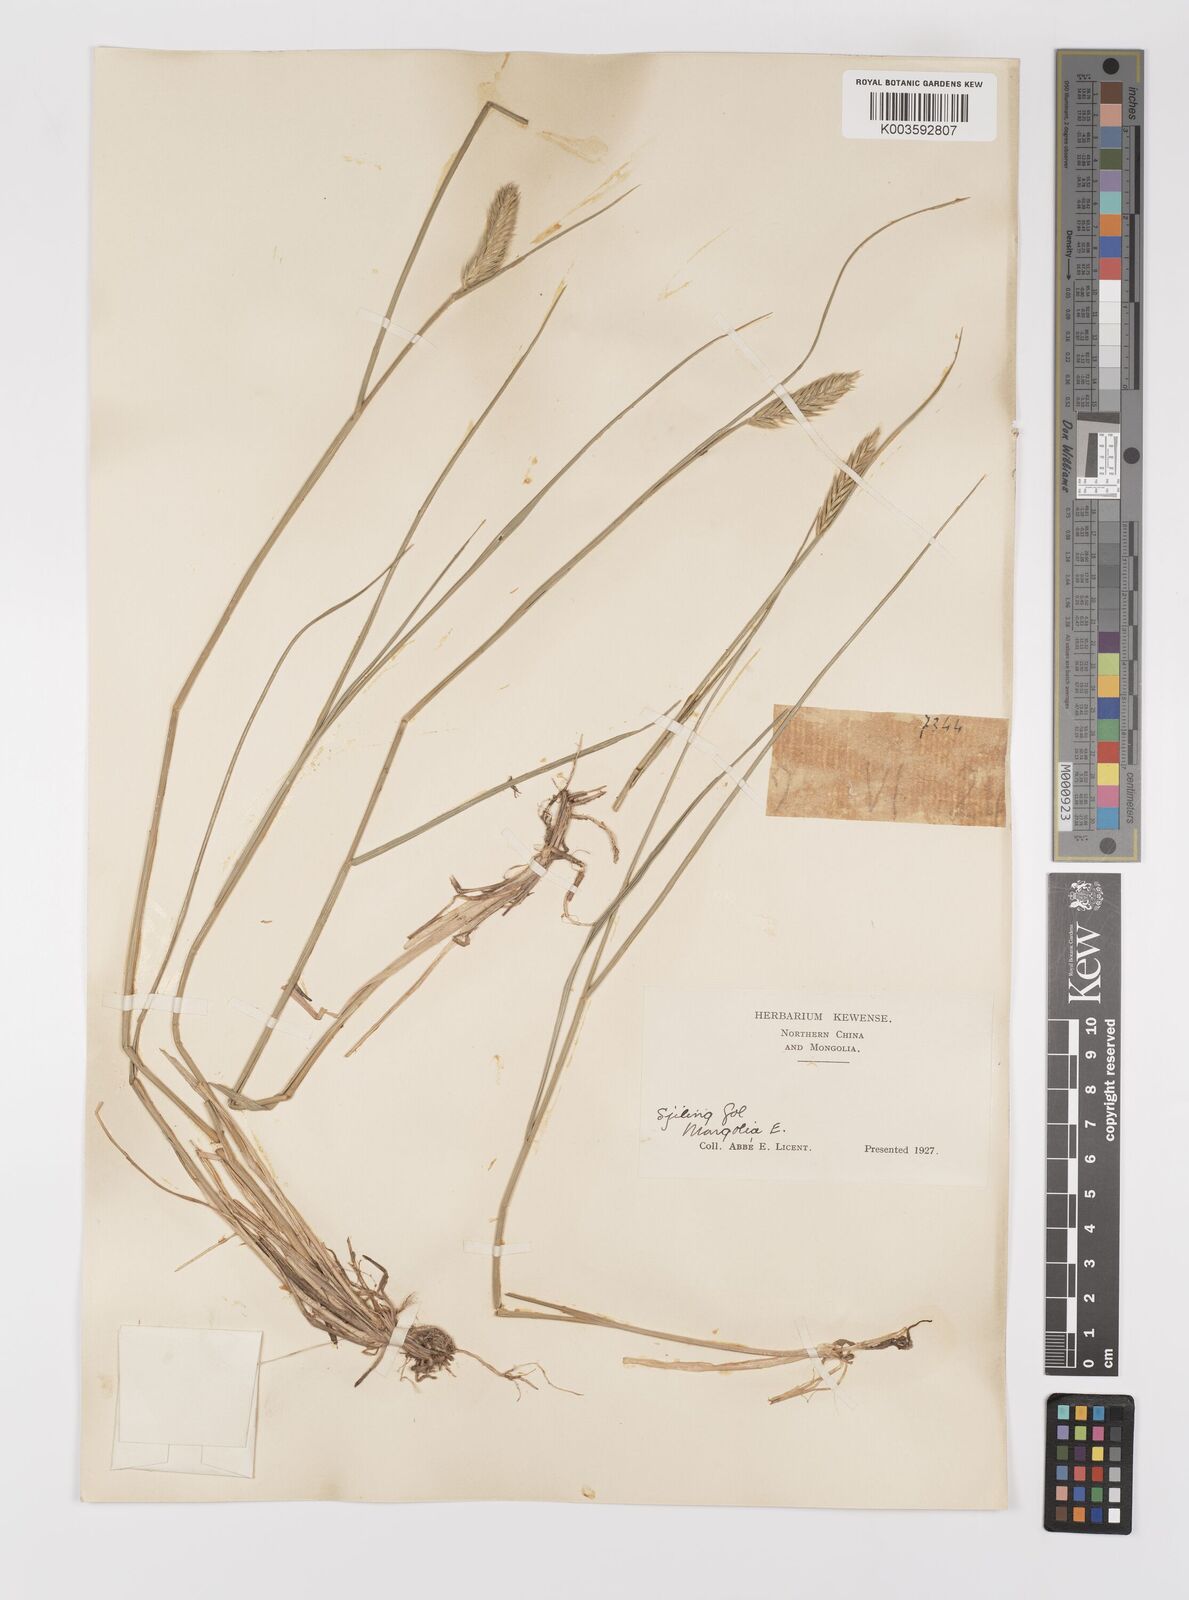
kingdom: Plantae
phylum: Tracheophyta
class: Liliopsida
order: Poales
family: Poaceae
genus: Agropyron
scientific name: Agropyron cristatum
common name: Crested wheatgrass
